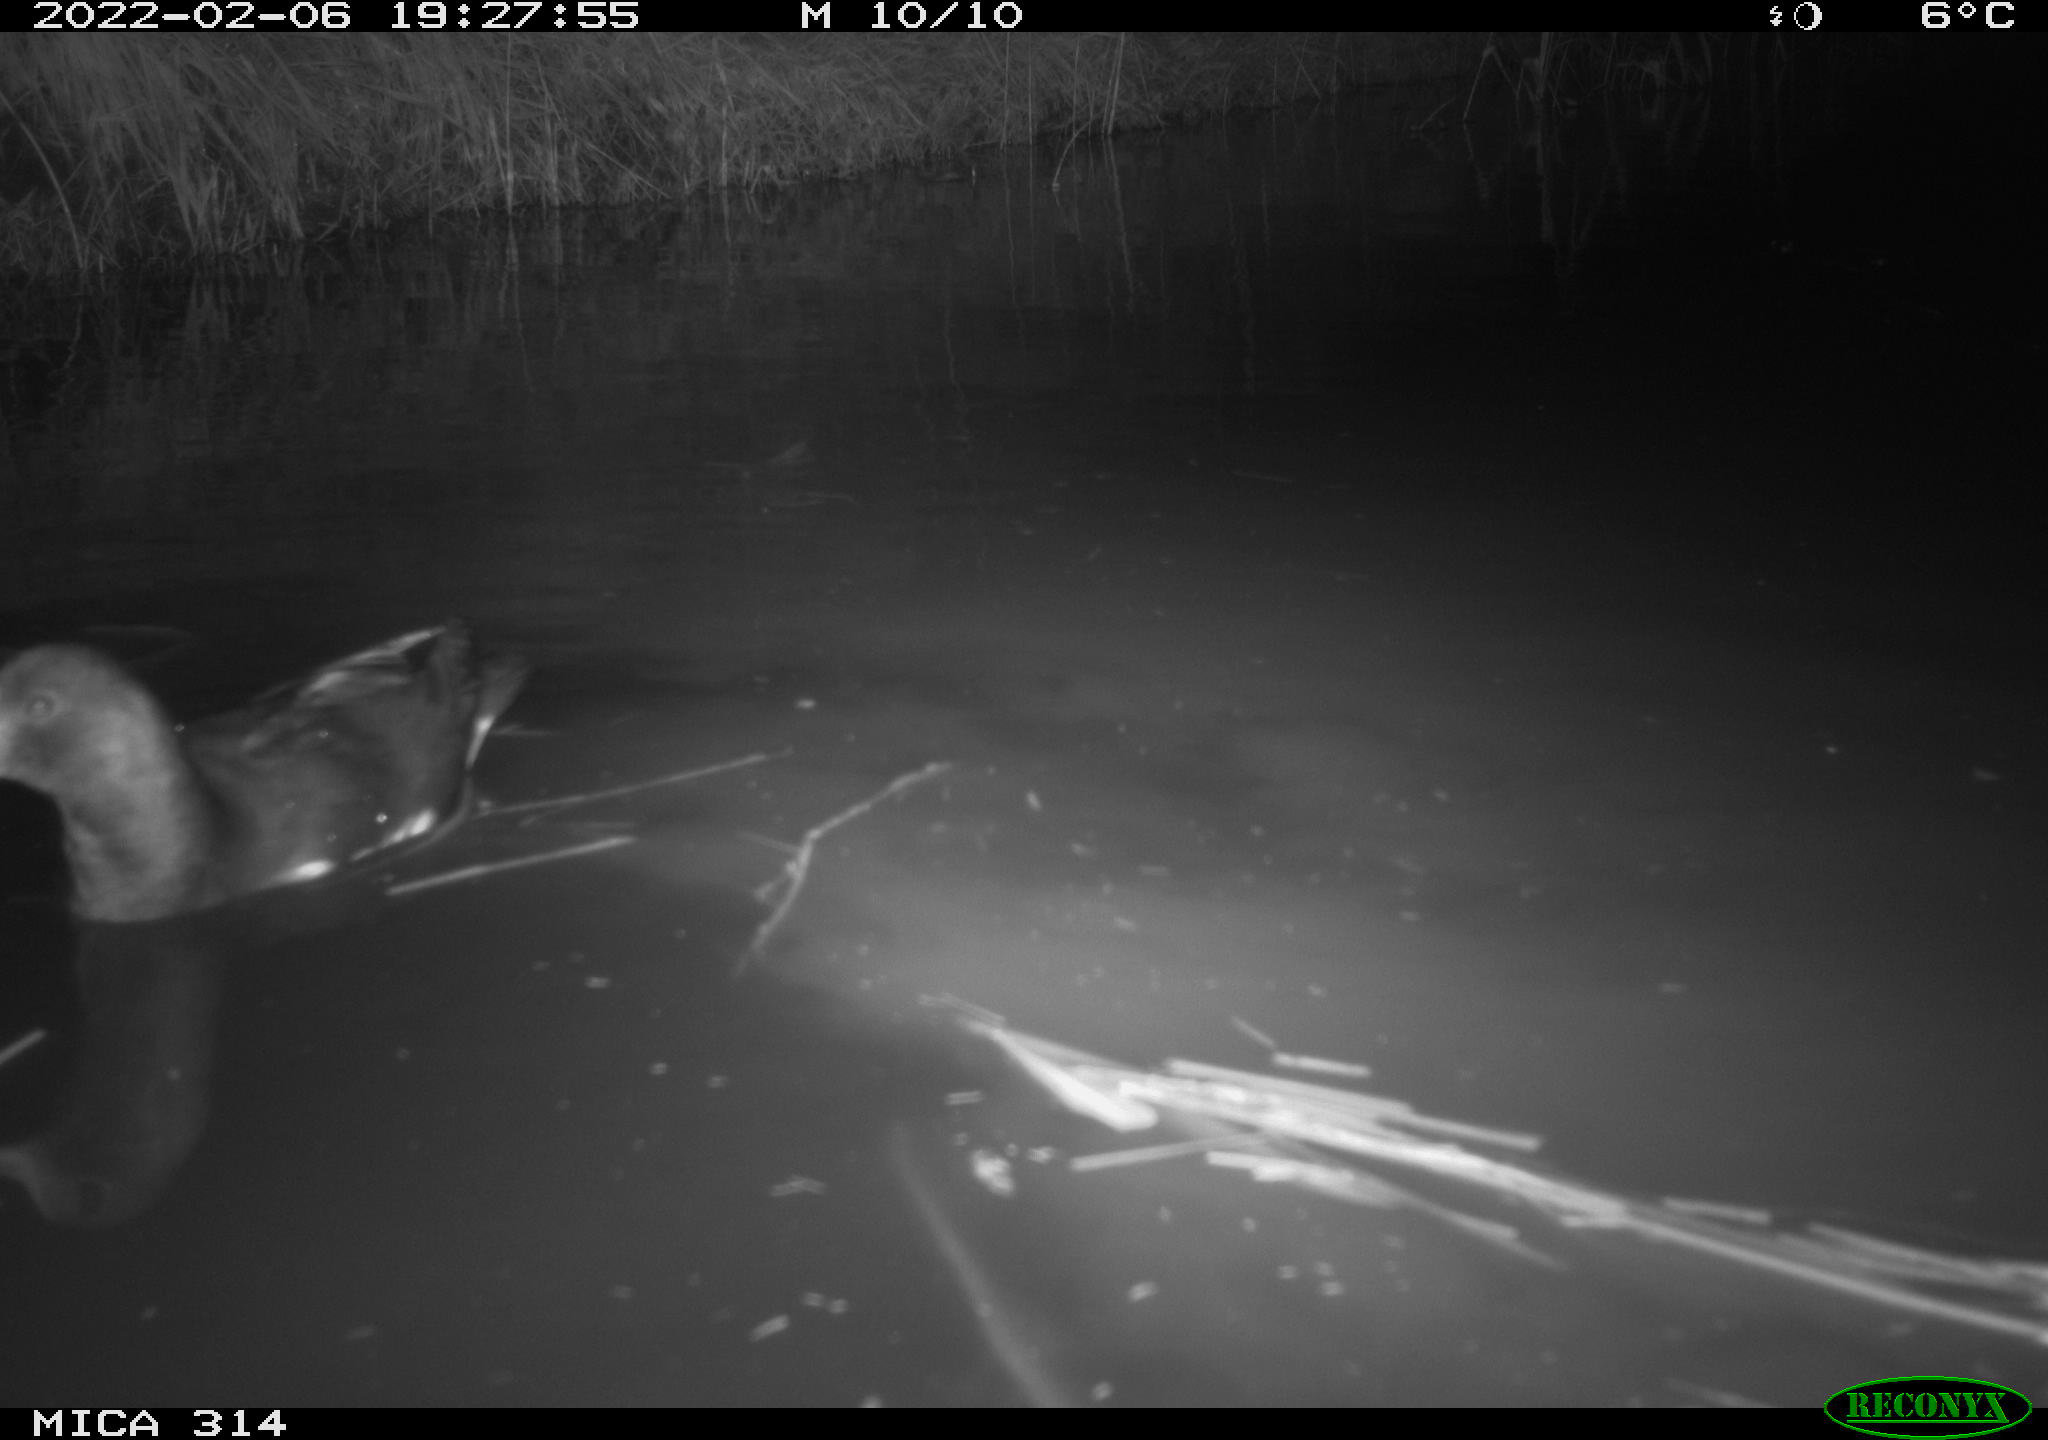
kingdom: Animalia
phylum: Chordata
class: Aves
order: Anseriformes
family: Anatidae
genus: Mareca
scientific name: Mareca strepera
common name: Gadwall
